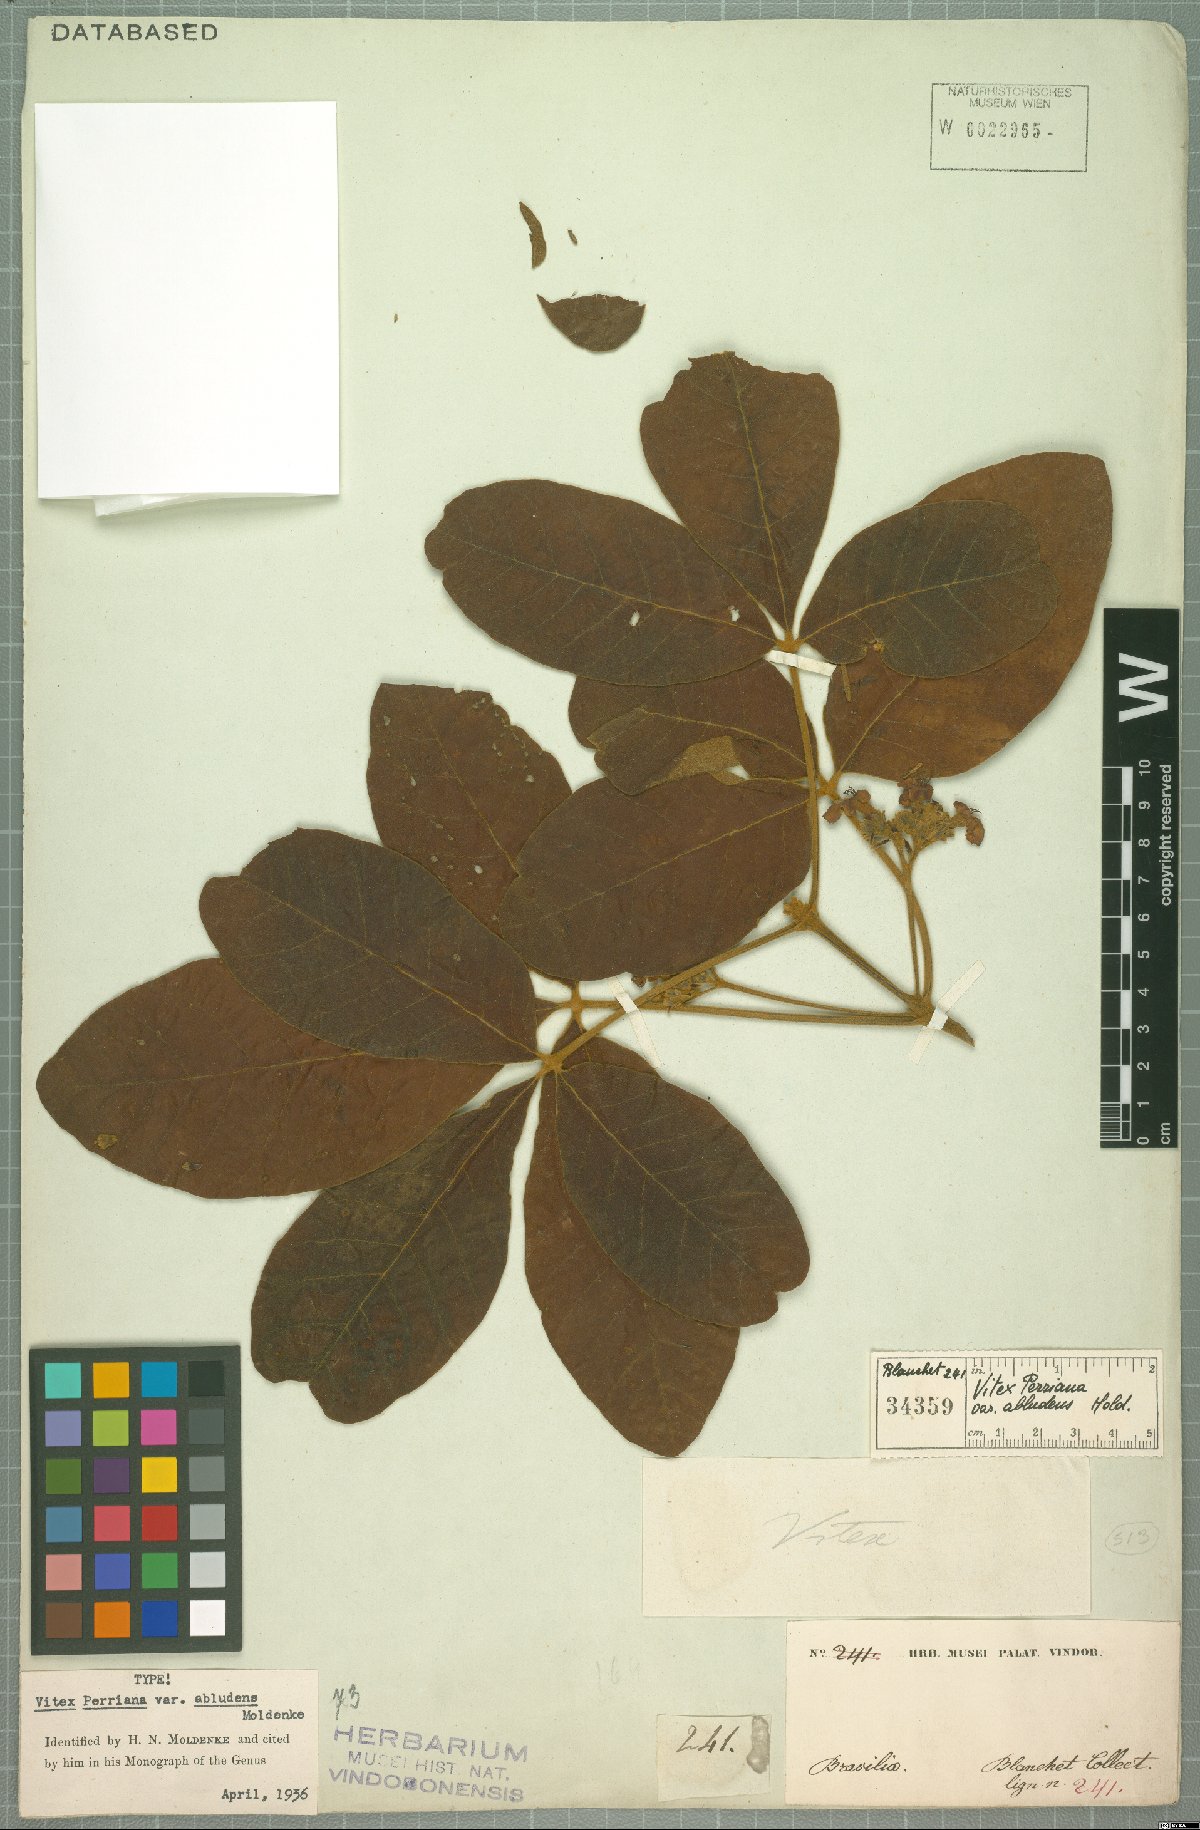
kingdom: Plantae
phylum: Tracheophyta
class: Magnoliopsida
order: Lamiales
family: Lamiaceae
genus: Vitex
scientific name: Vitex rufescens
